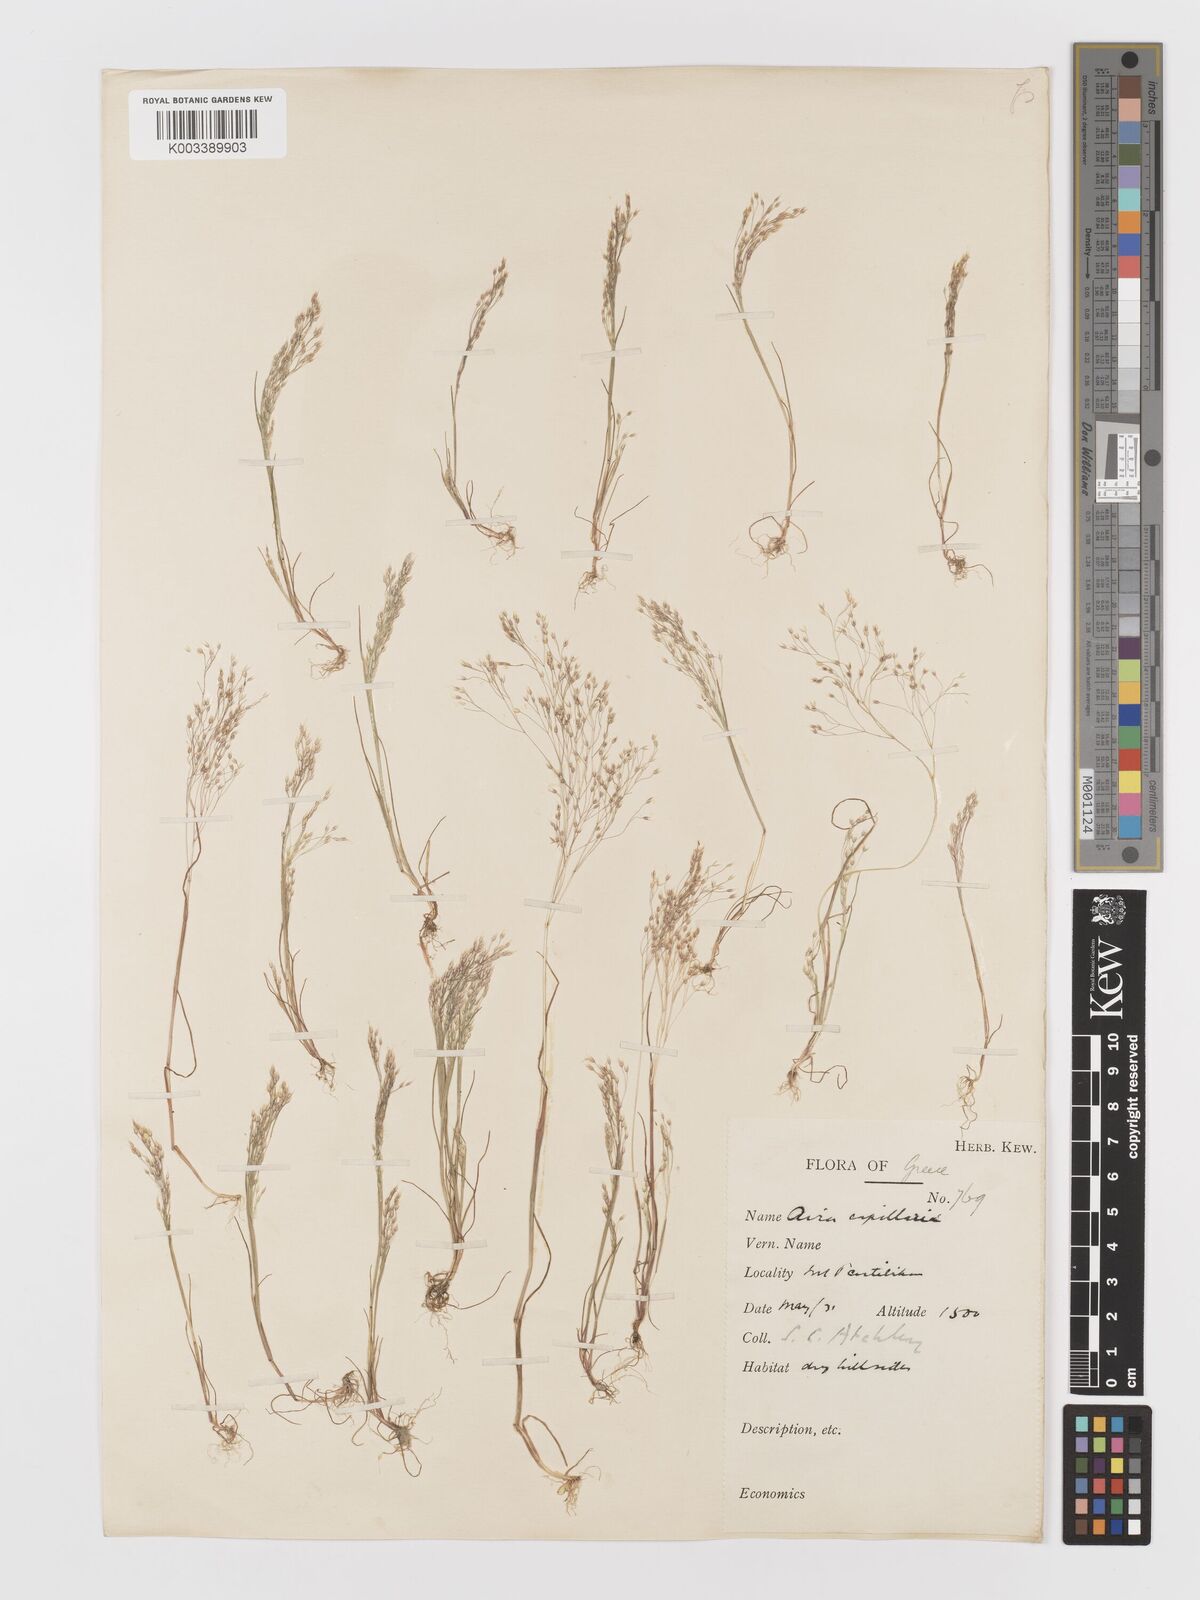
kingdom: Plantae
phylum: Tracheophyta
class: Liliopsida
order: Poales
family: Poaceae
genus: Aira
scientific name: Aira elegans
